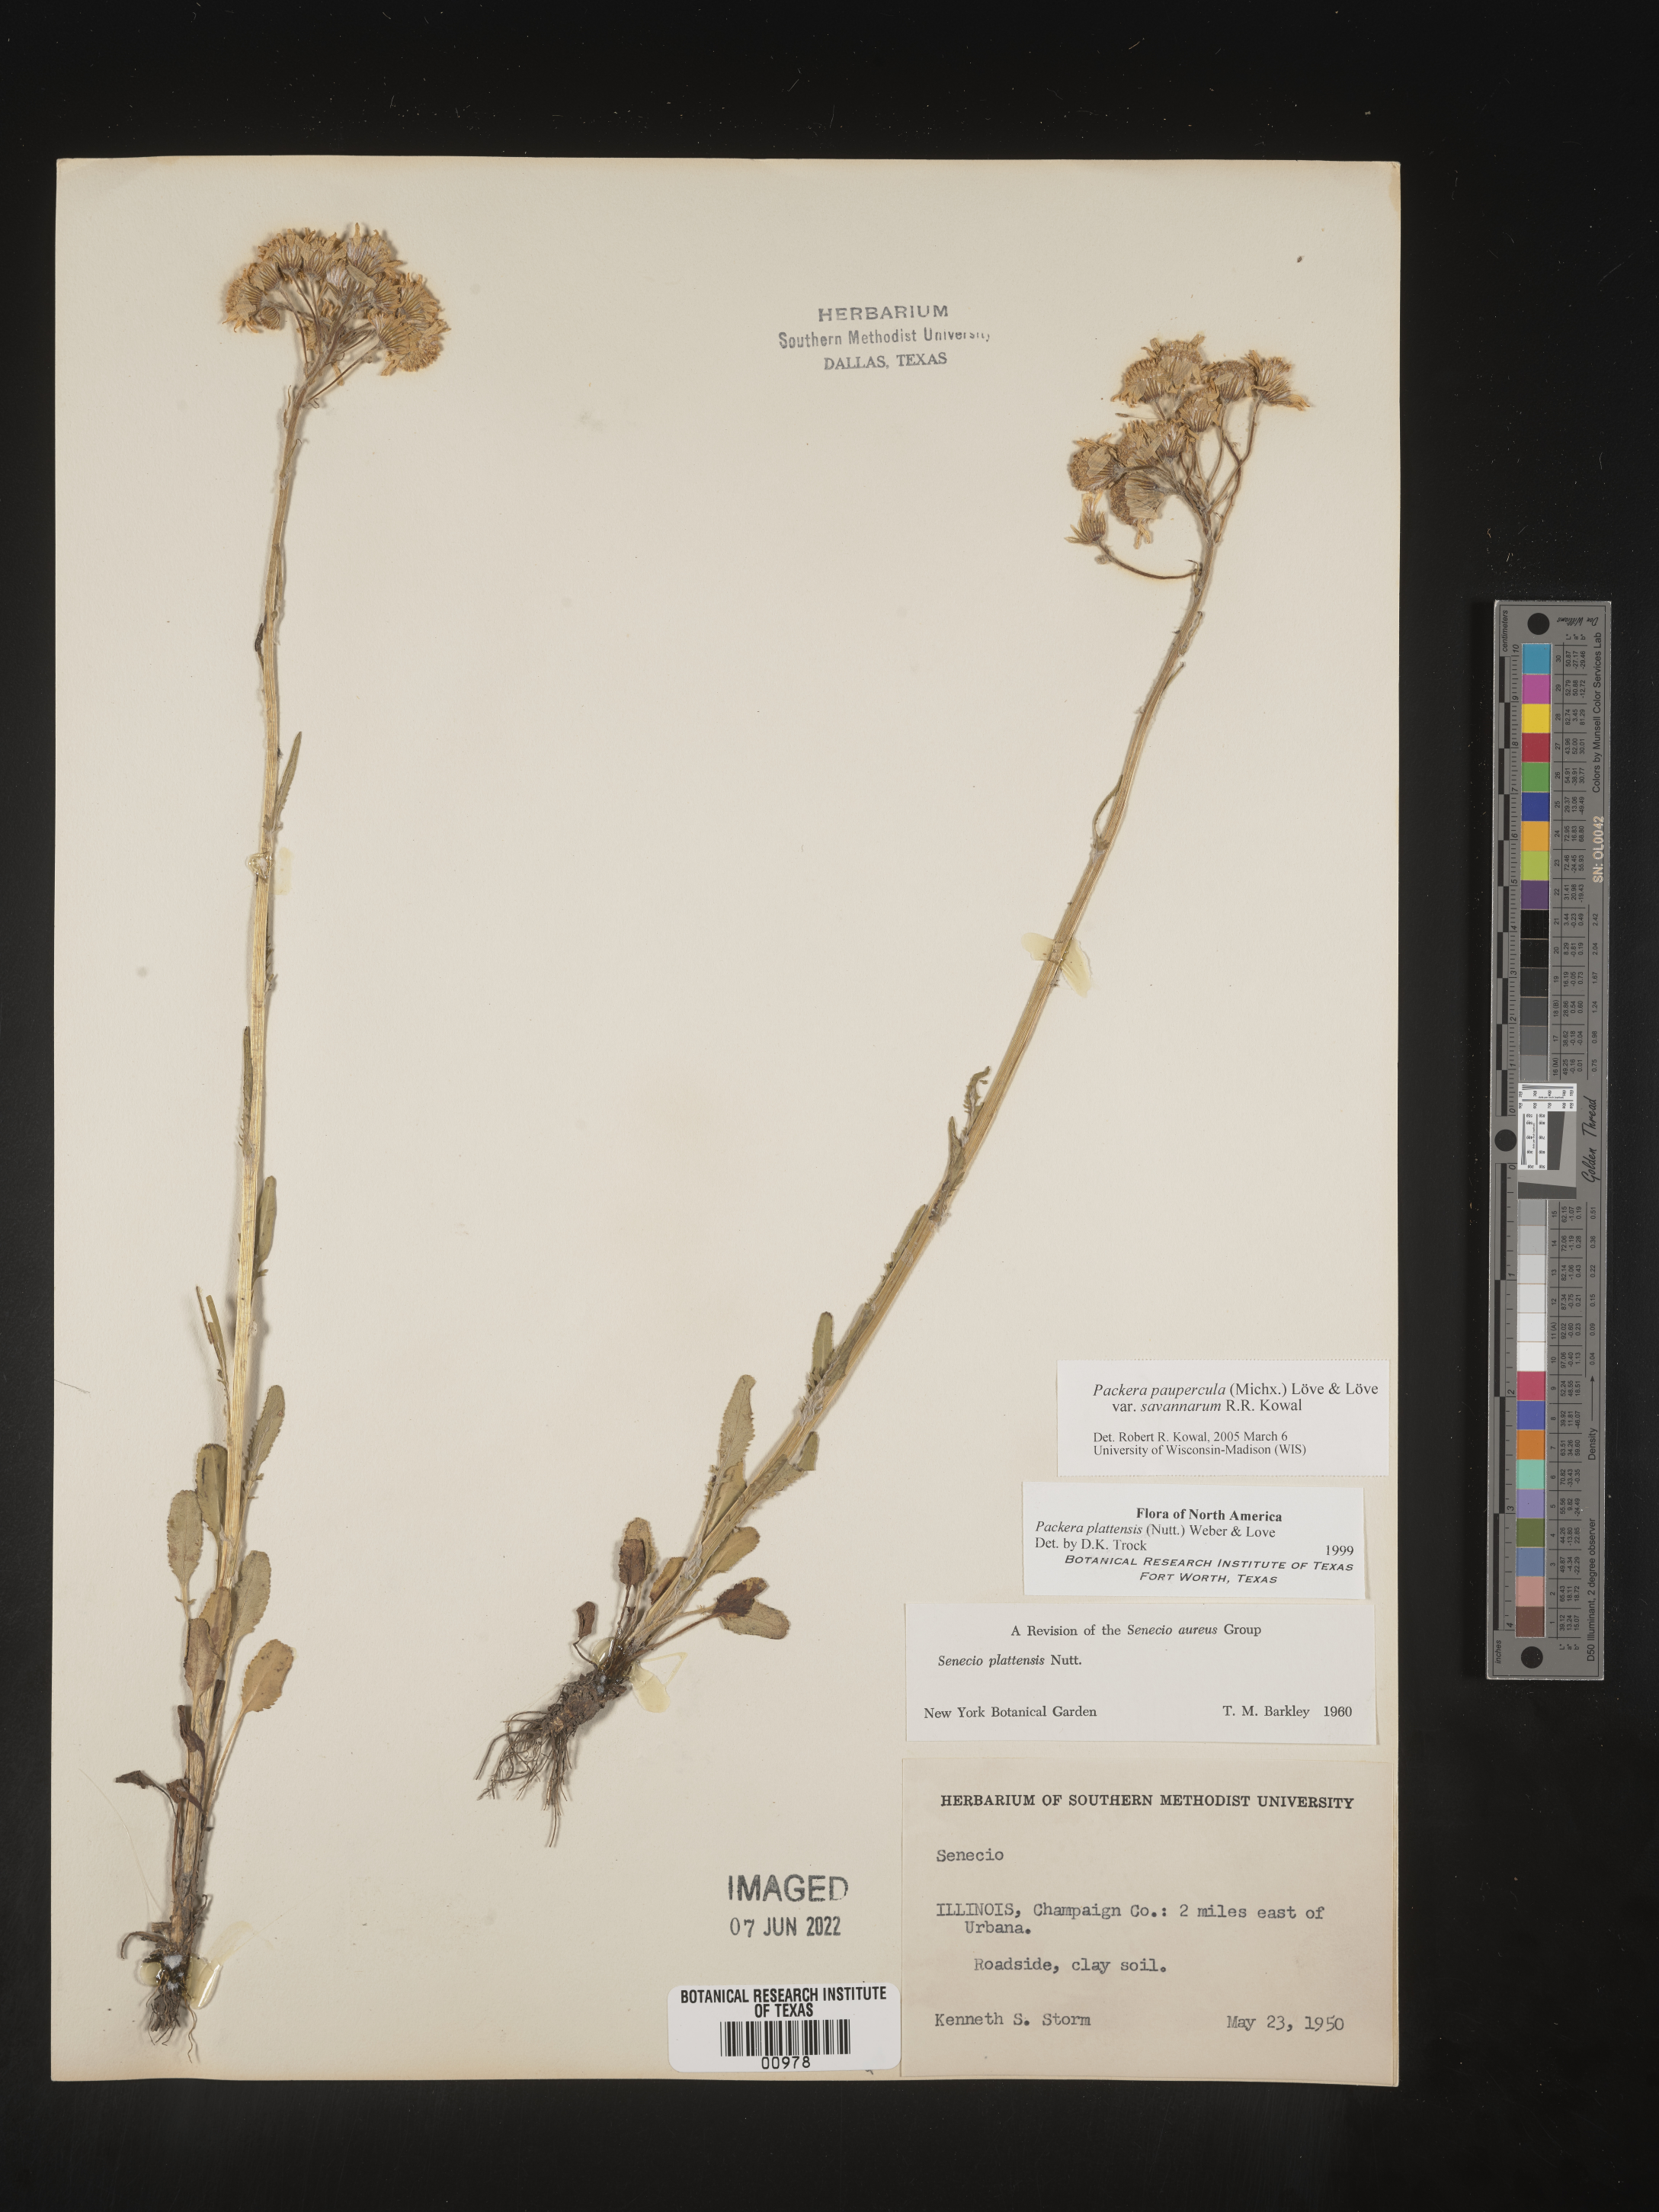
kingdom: Plantae
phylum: Tracheophyta
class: Magnoliopsida
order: Asterales
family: Asteraceae
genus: Packera
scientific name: Packera paupercula
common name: Balsam groundsel
